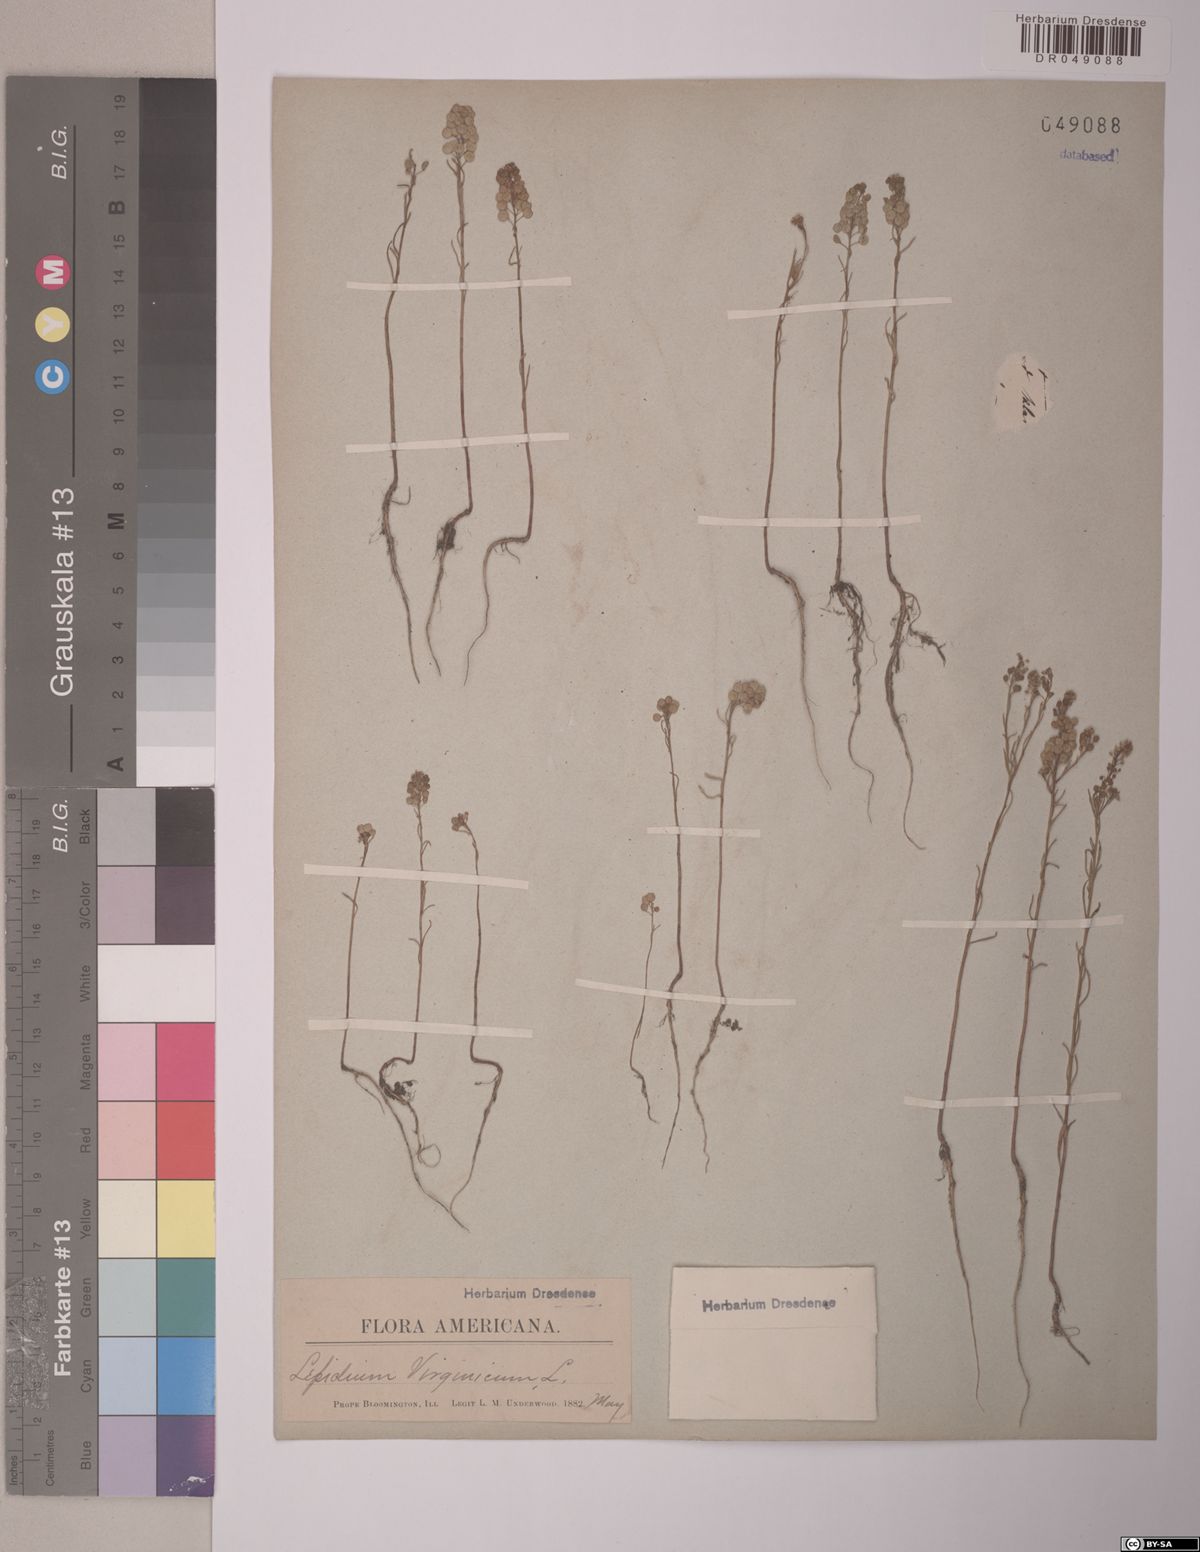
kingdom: Plantae
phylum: Tracheophyta
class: Magnoliopsida
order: Brassicales
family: Brassicaceae
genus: Lepidium
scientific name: Lepidium virginicum
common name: Least pepperwort
